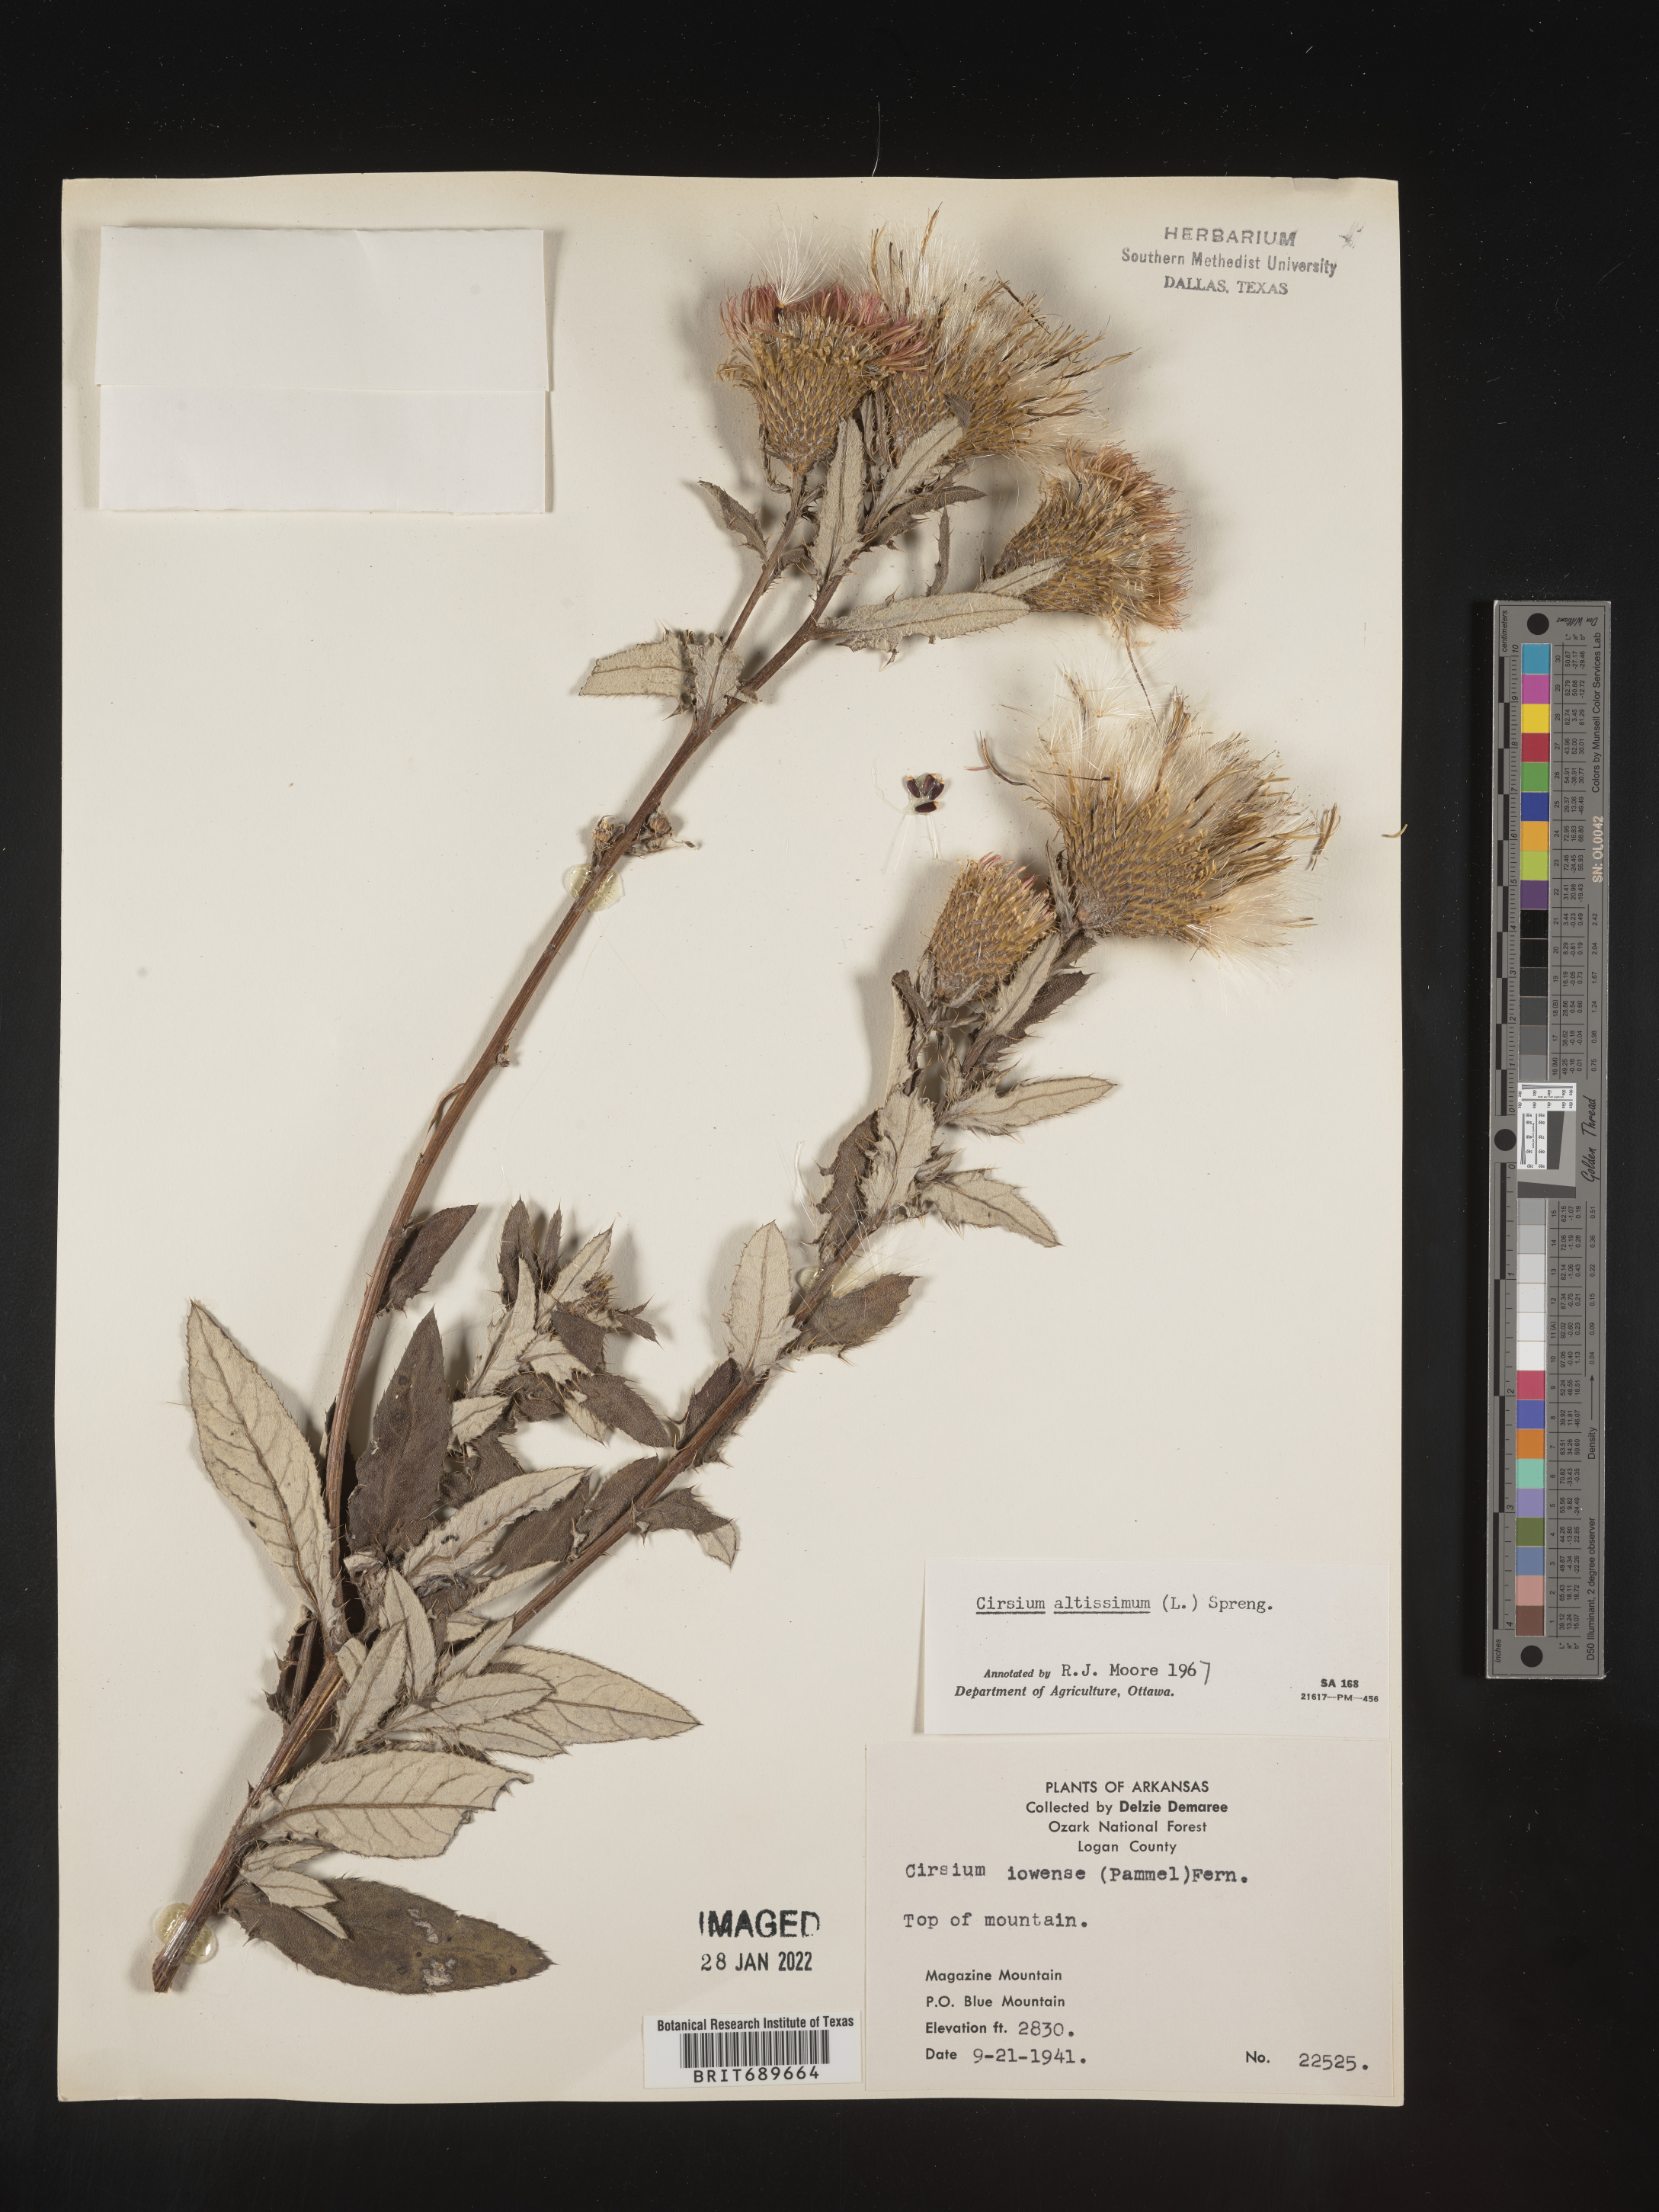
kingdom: Plantae
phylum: Tracheophyta
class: Magnoliopsida
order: Asterales
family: Asteraceae
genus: Cirsium
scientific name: Cirsium altissimum
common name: Roadside thistle
